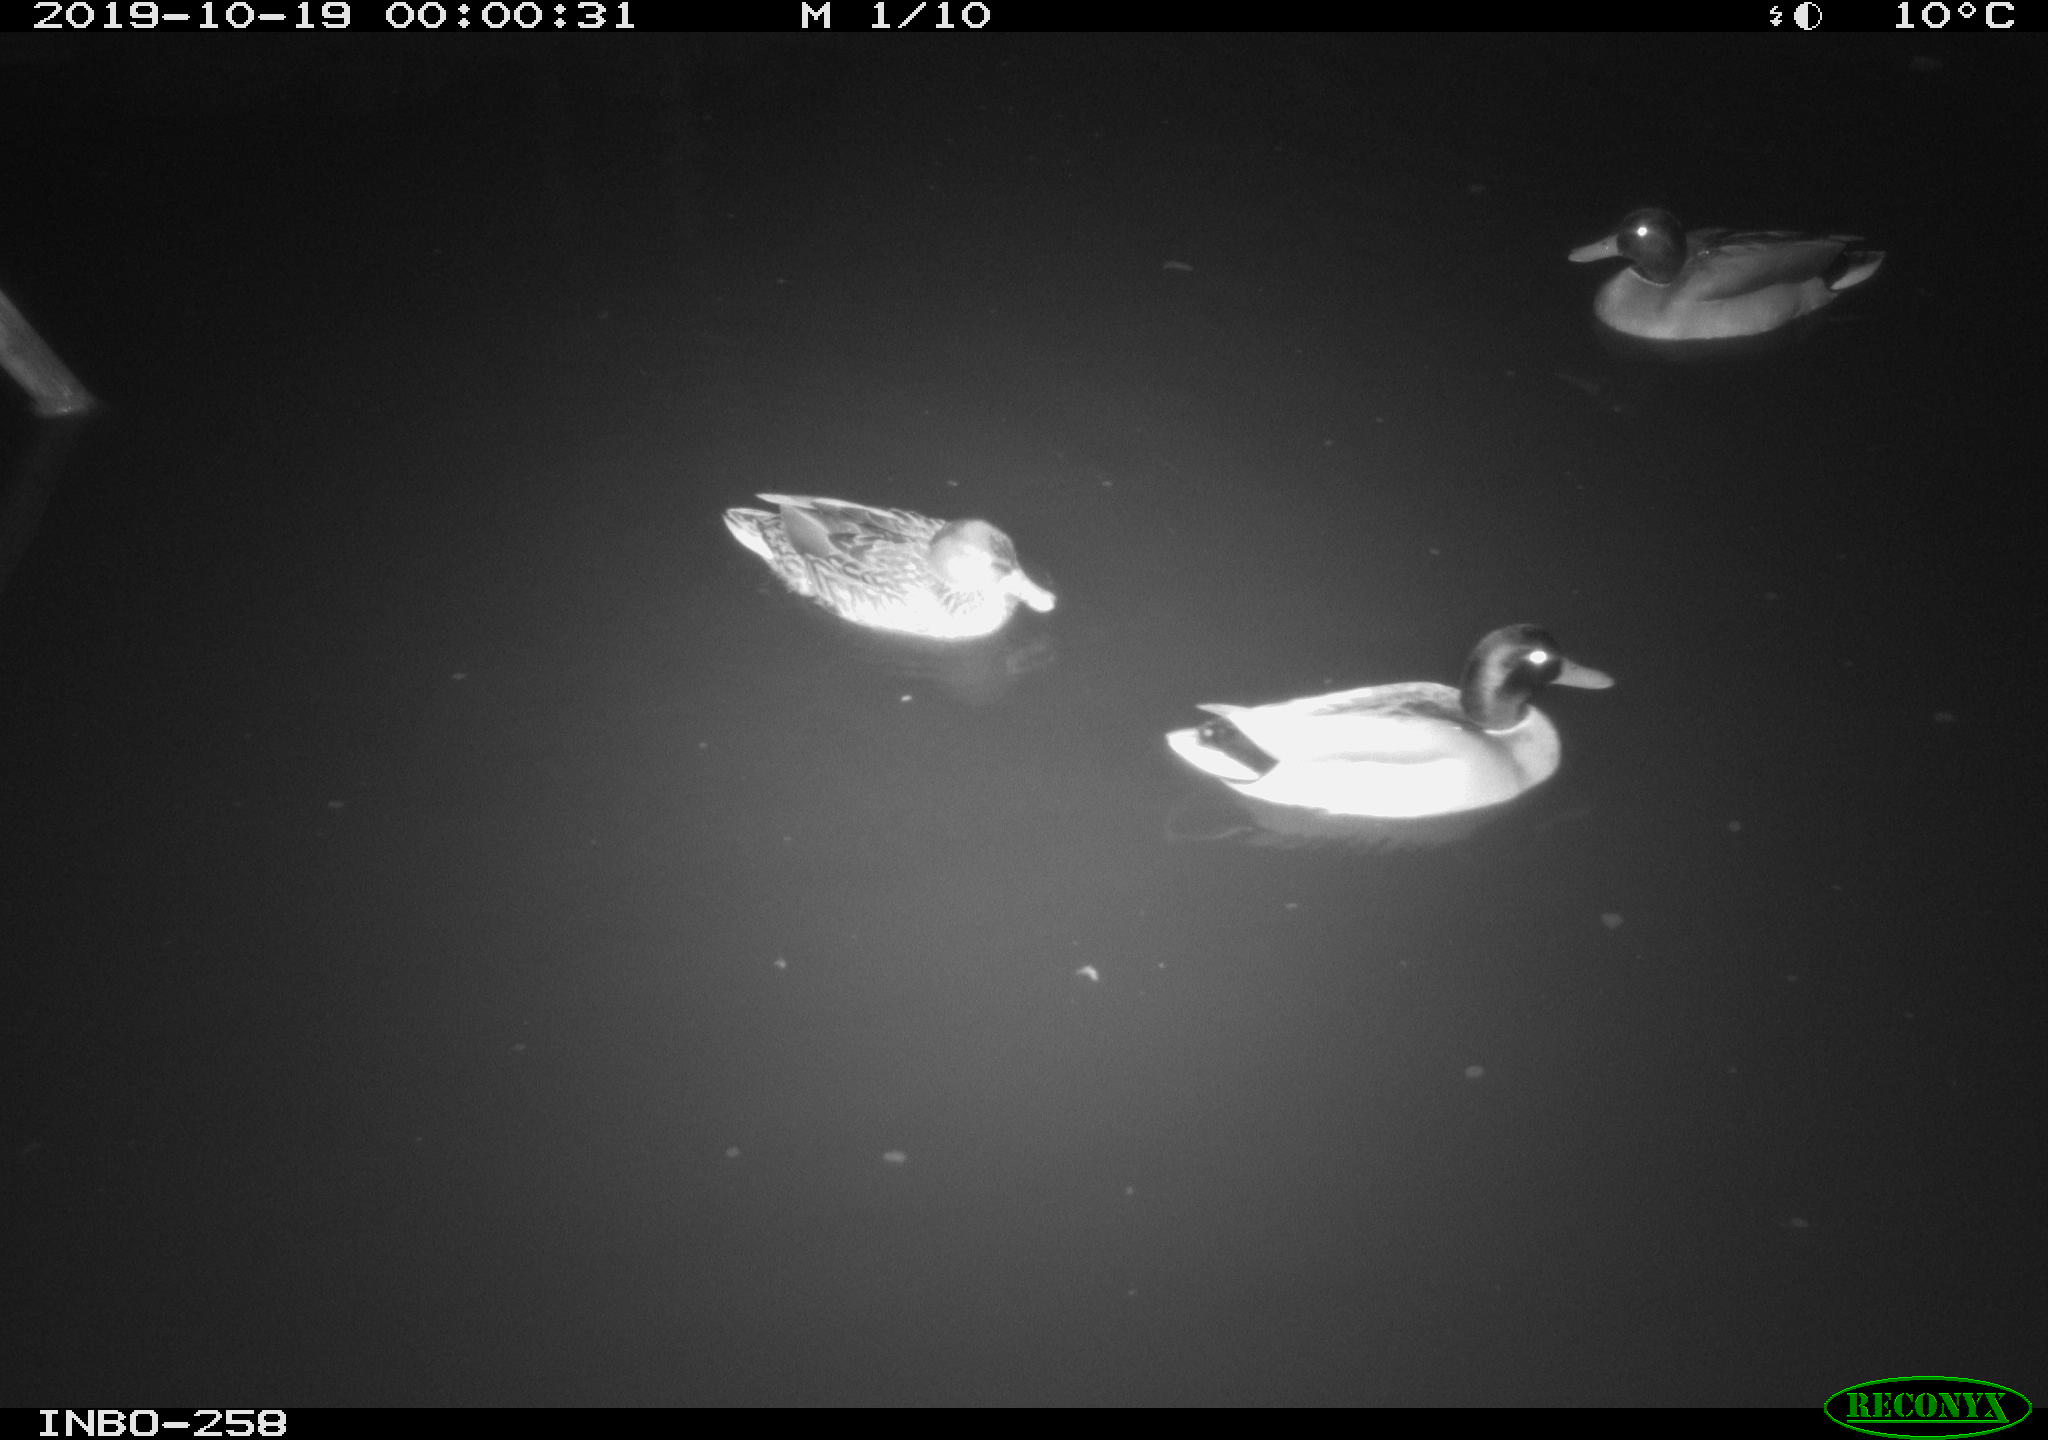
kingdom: Animalia
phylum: Chordata
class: Aves
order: Anseriformes
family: Anatidae
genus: Anas
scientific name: Anas platyrhynchos
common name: Mallard
